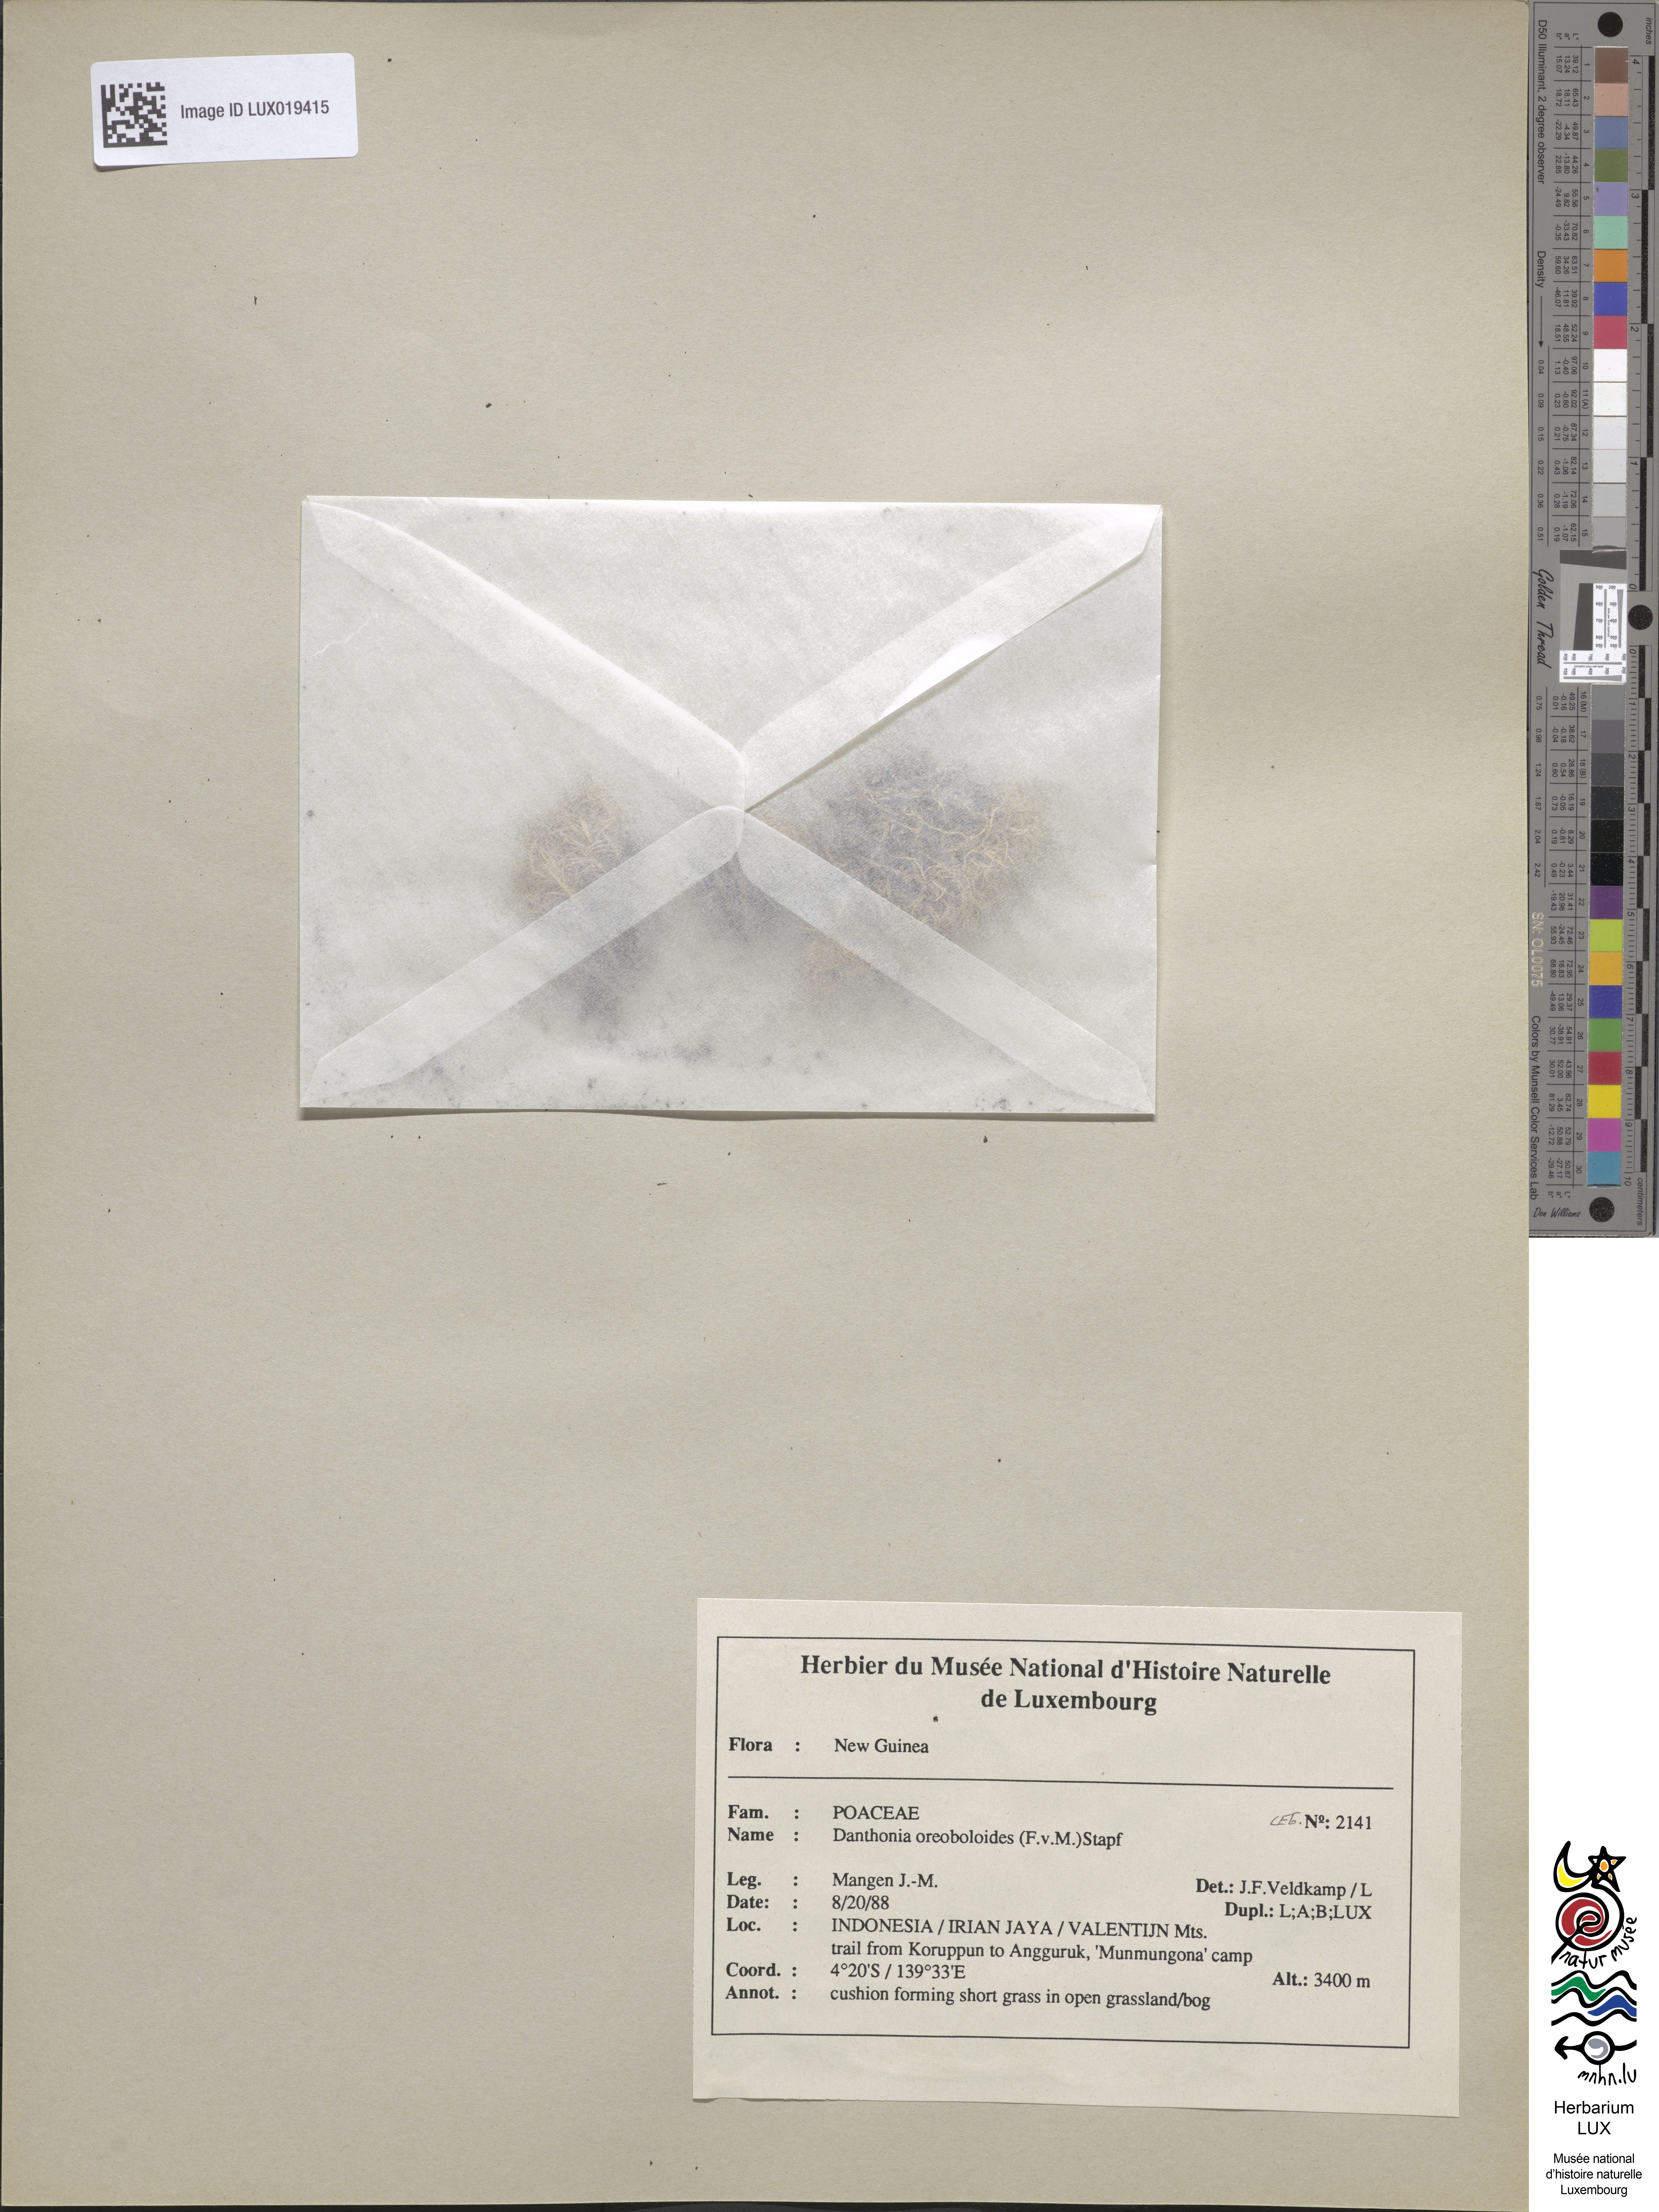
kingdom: Plantae
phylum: Tracheophyta
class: Liliopsida
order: Poales
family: Poaceae
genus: Rytidosperma
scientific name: Rytidosperma oreoboloides
